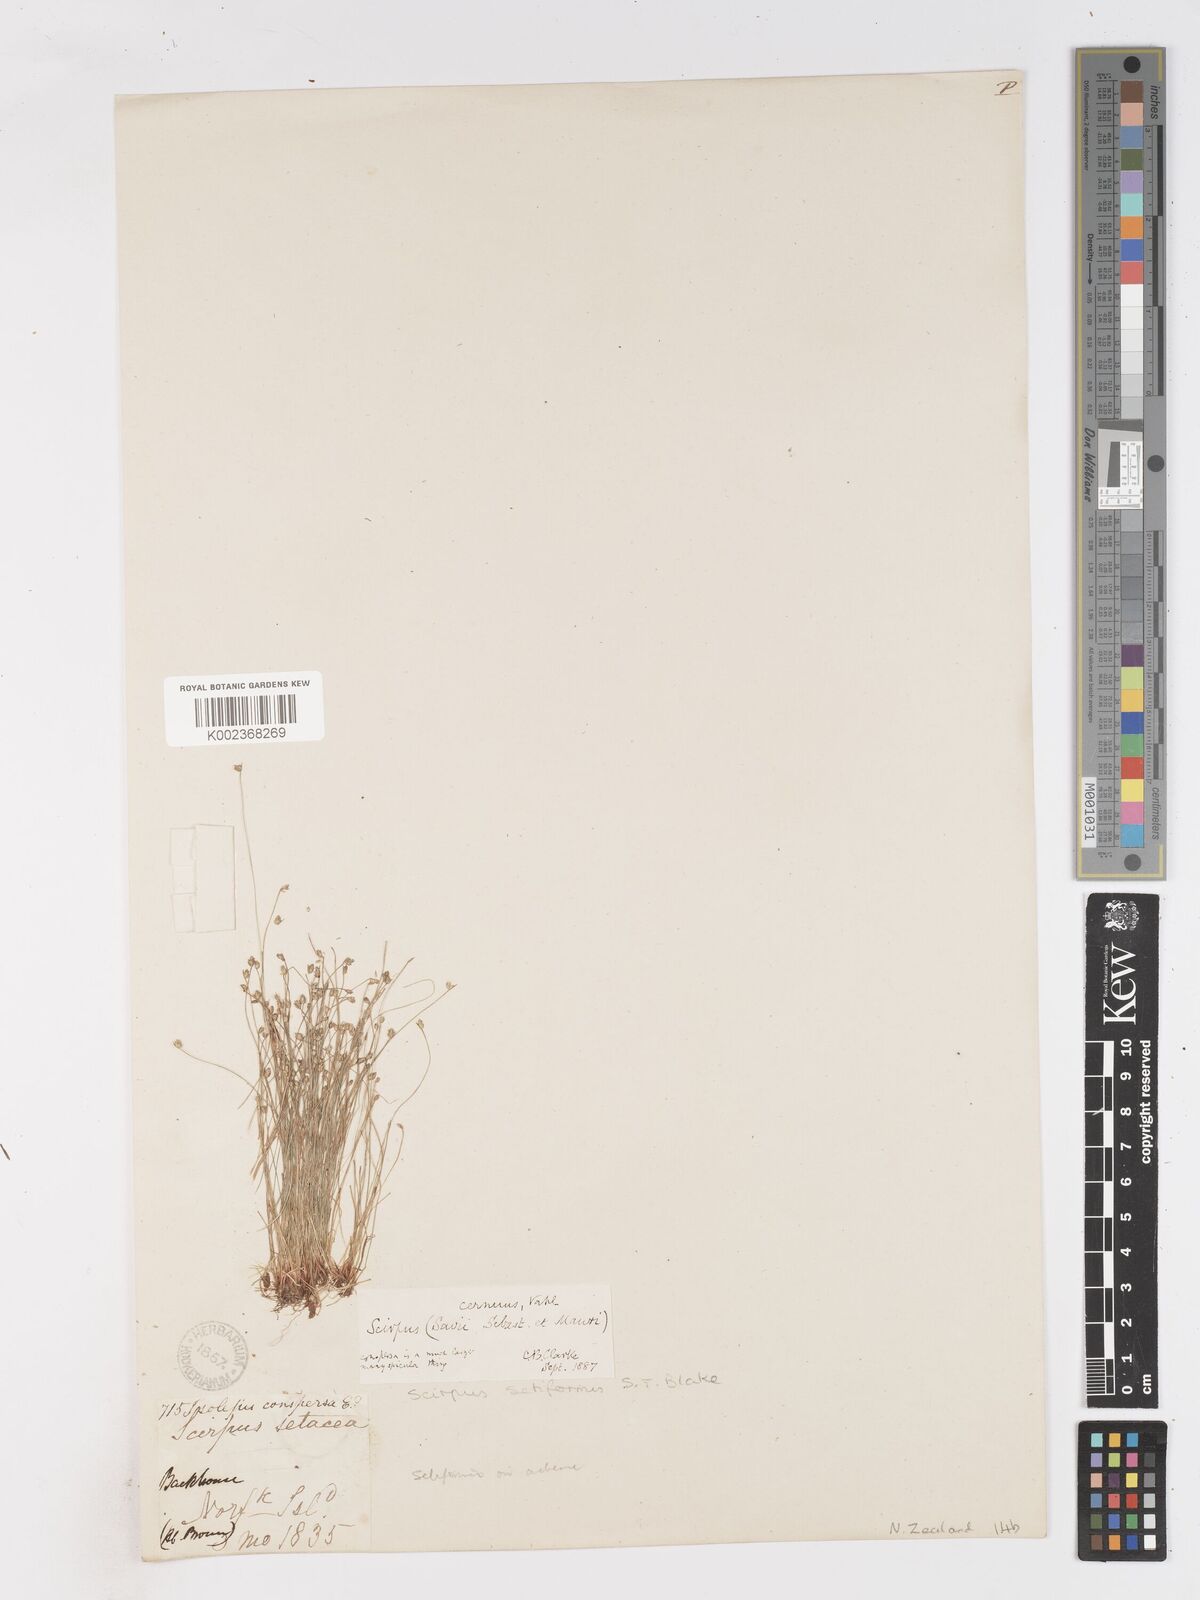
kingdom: Plantae
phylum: Tracheophyta
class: Liliopsida
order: Poales
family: Cyperaceae
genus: Isolepis
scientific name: Isolepis cernua
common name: Slender club-rush
